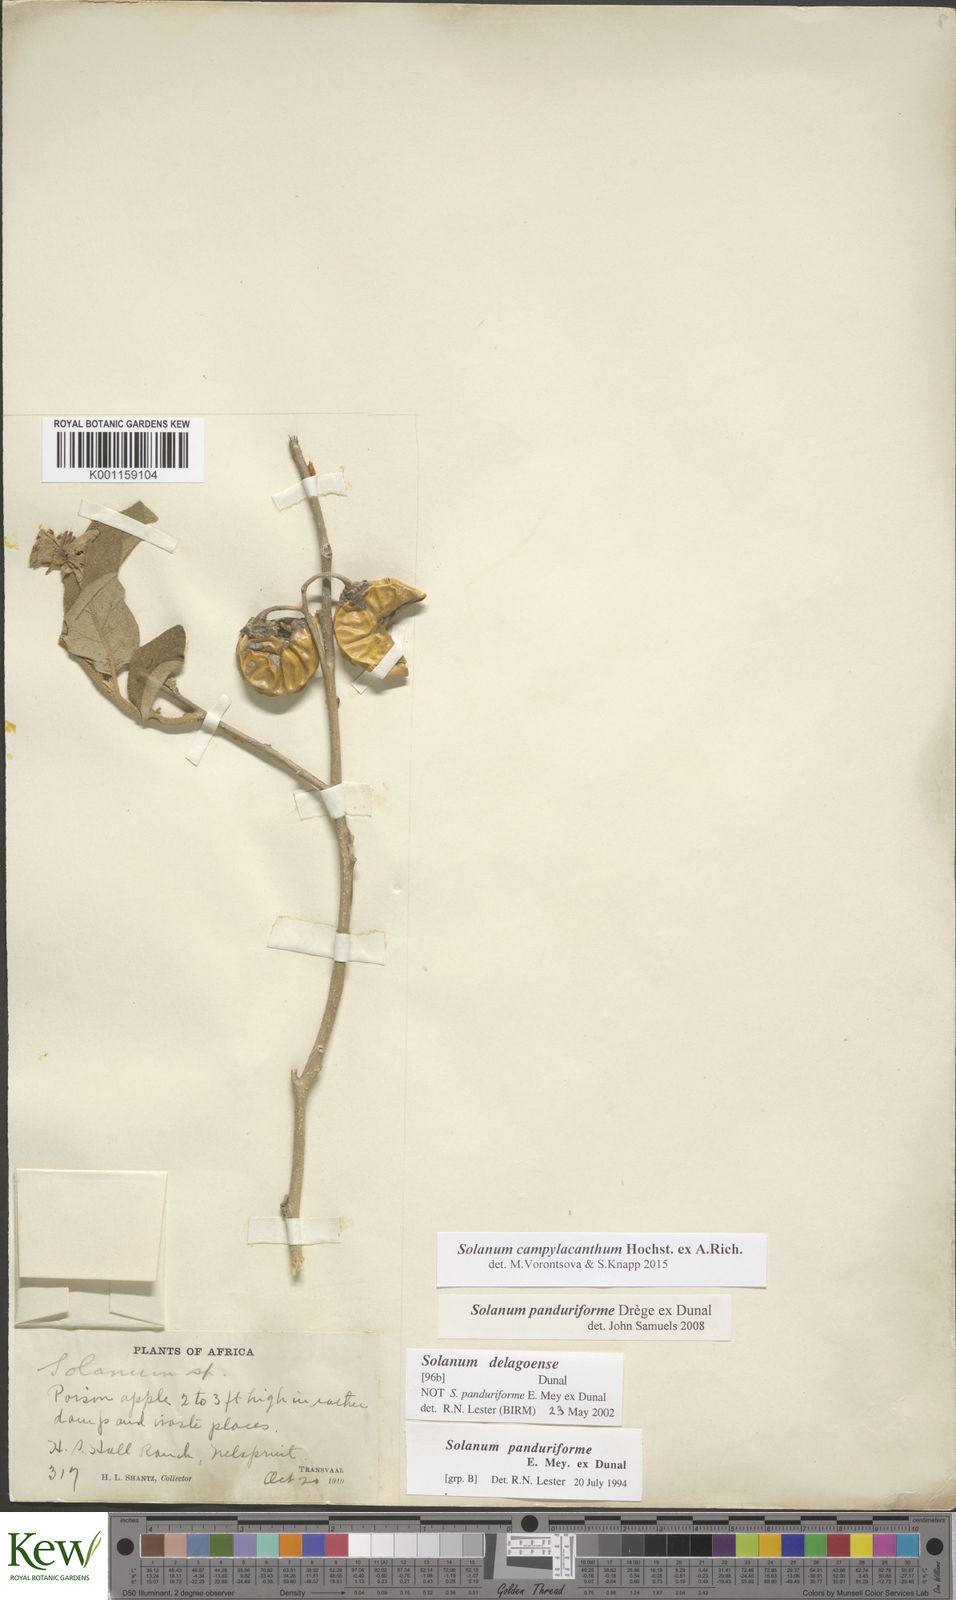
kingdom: Plantae
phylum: Tracheophyta
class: Magnoliopsida
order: Solanales
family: Solanaceae
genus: Solanum
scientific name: Solanum campylacanthum
